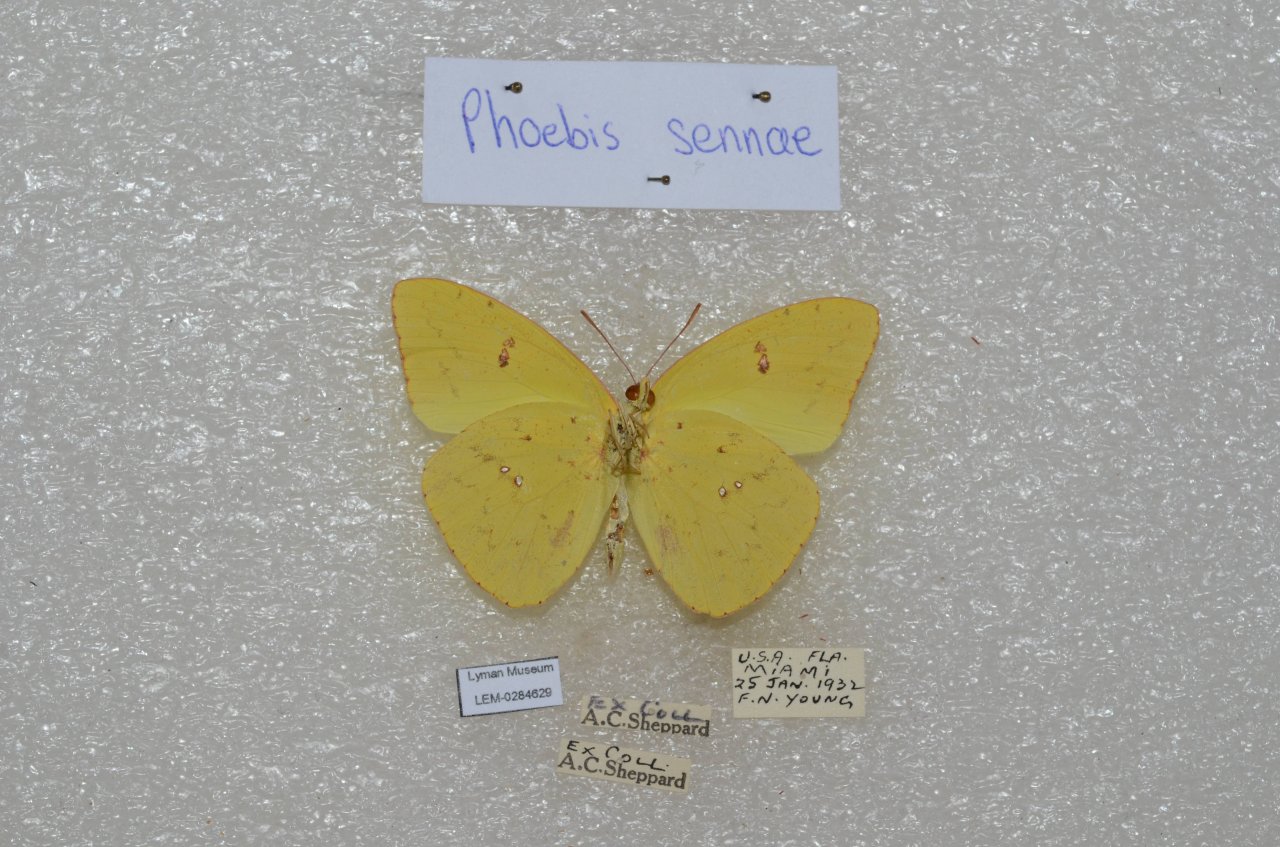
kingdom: Animalia
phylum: Arthropoda
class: Insecta
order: Lepidoptera
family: Pieridae
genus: Phoebis
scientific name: Phoebis sennae
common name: Cloudless Sulphur
